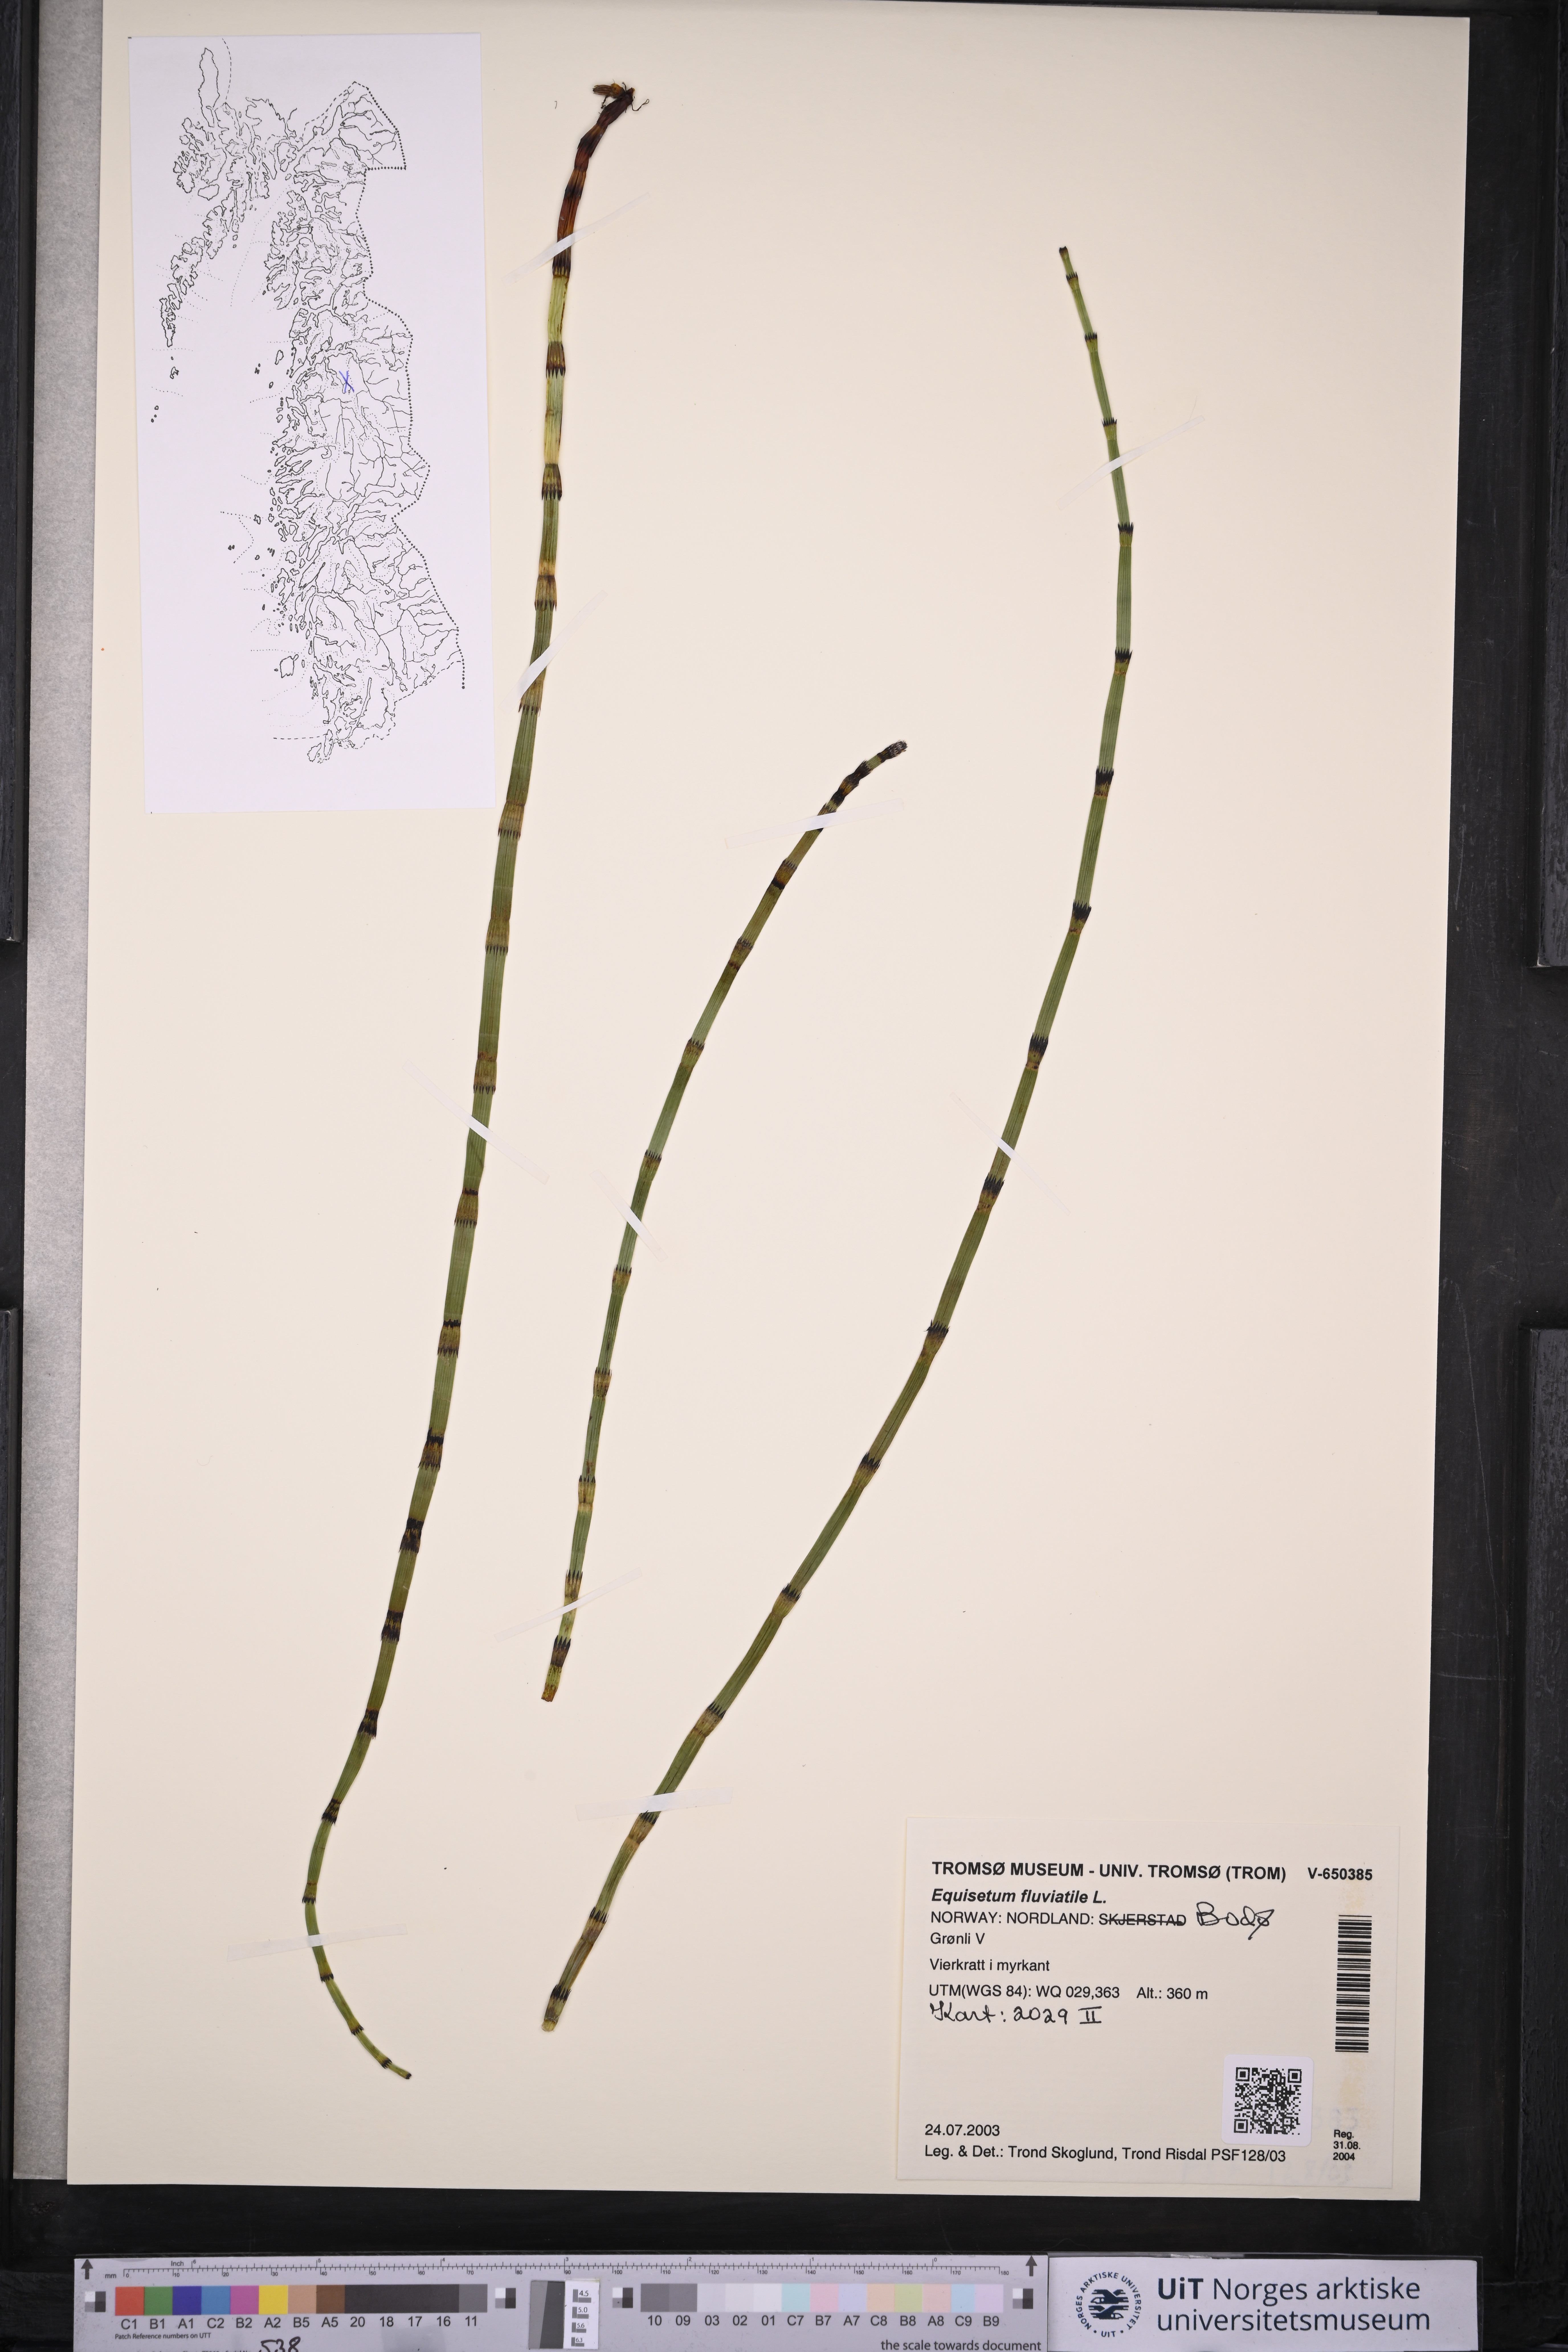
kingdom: Plantae
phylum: Tracheophyta
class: Polypodiopsida
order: Equisetales
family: Equisetaceae
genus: Equisetum
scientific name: Equisetum fluviatile
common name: Water horsetail
